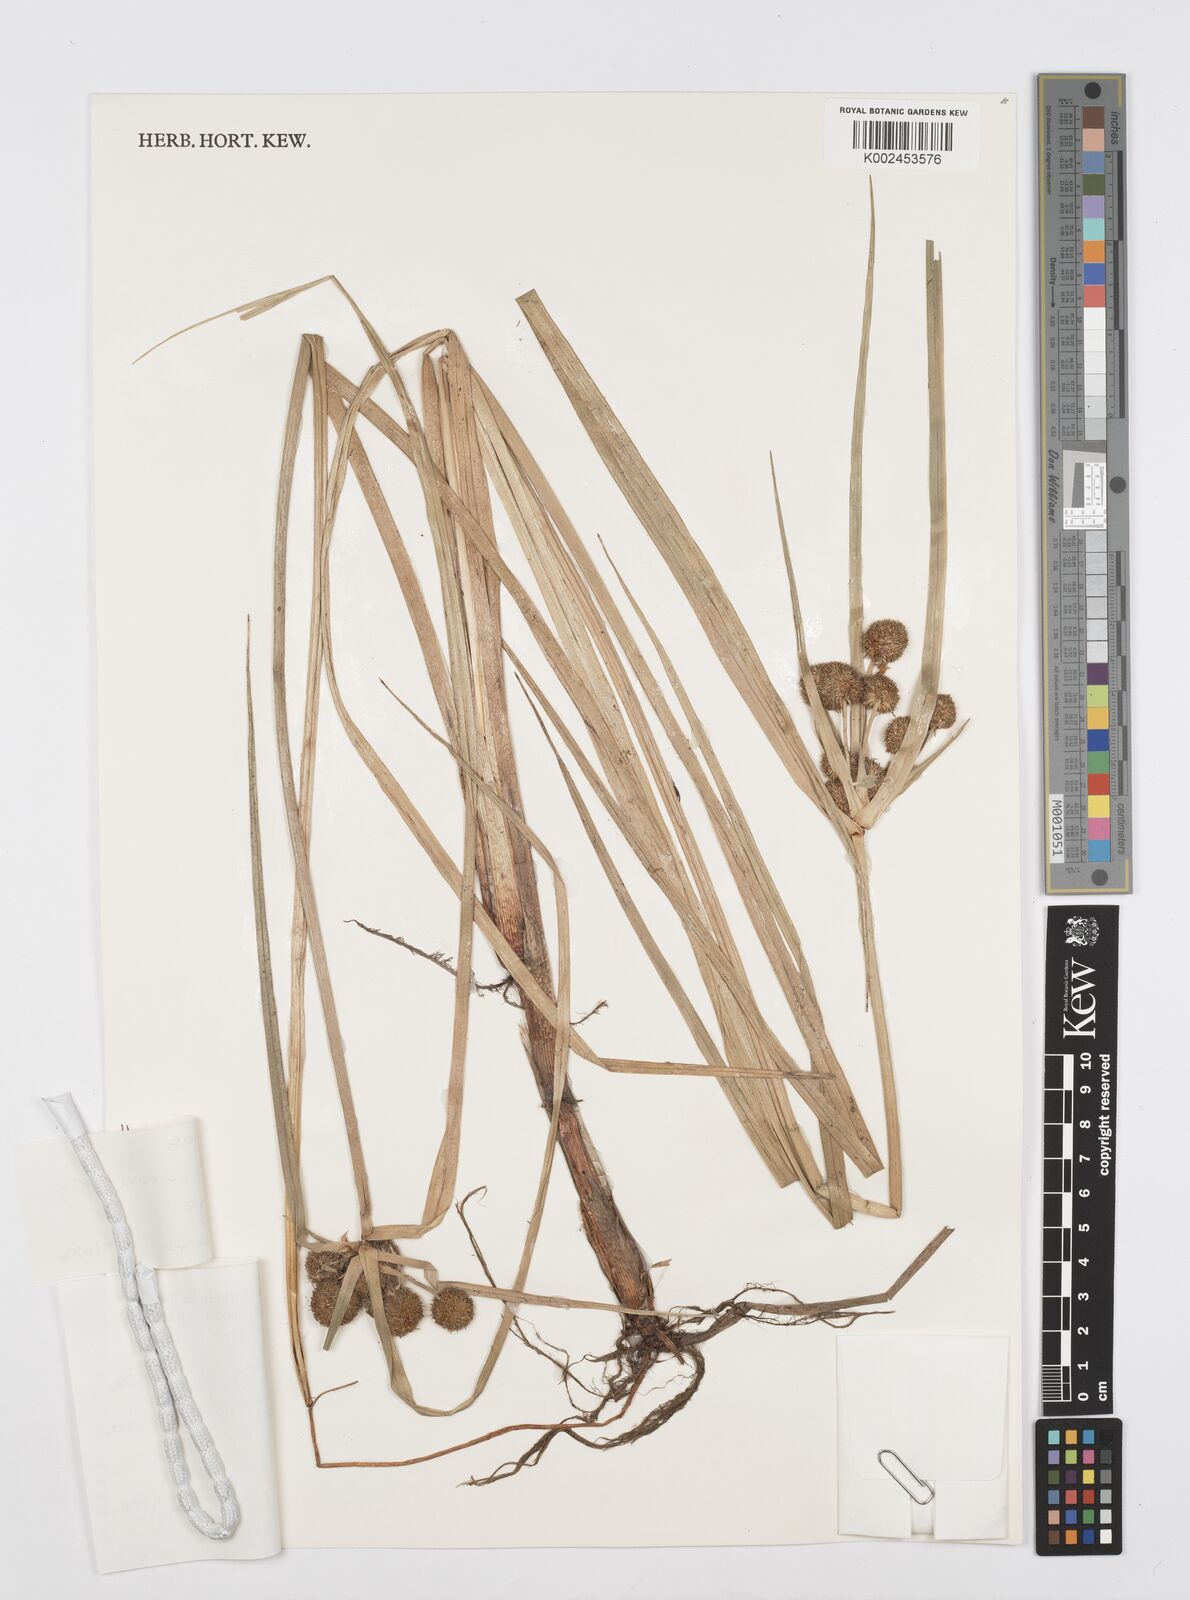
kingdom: Plantae
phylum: Tracheophyta
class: Liliopsida
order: Poales
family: Cyperaceae
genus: Cyperus
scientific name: Cyperus elegans
